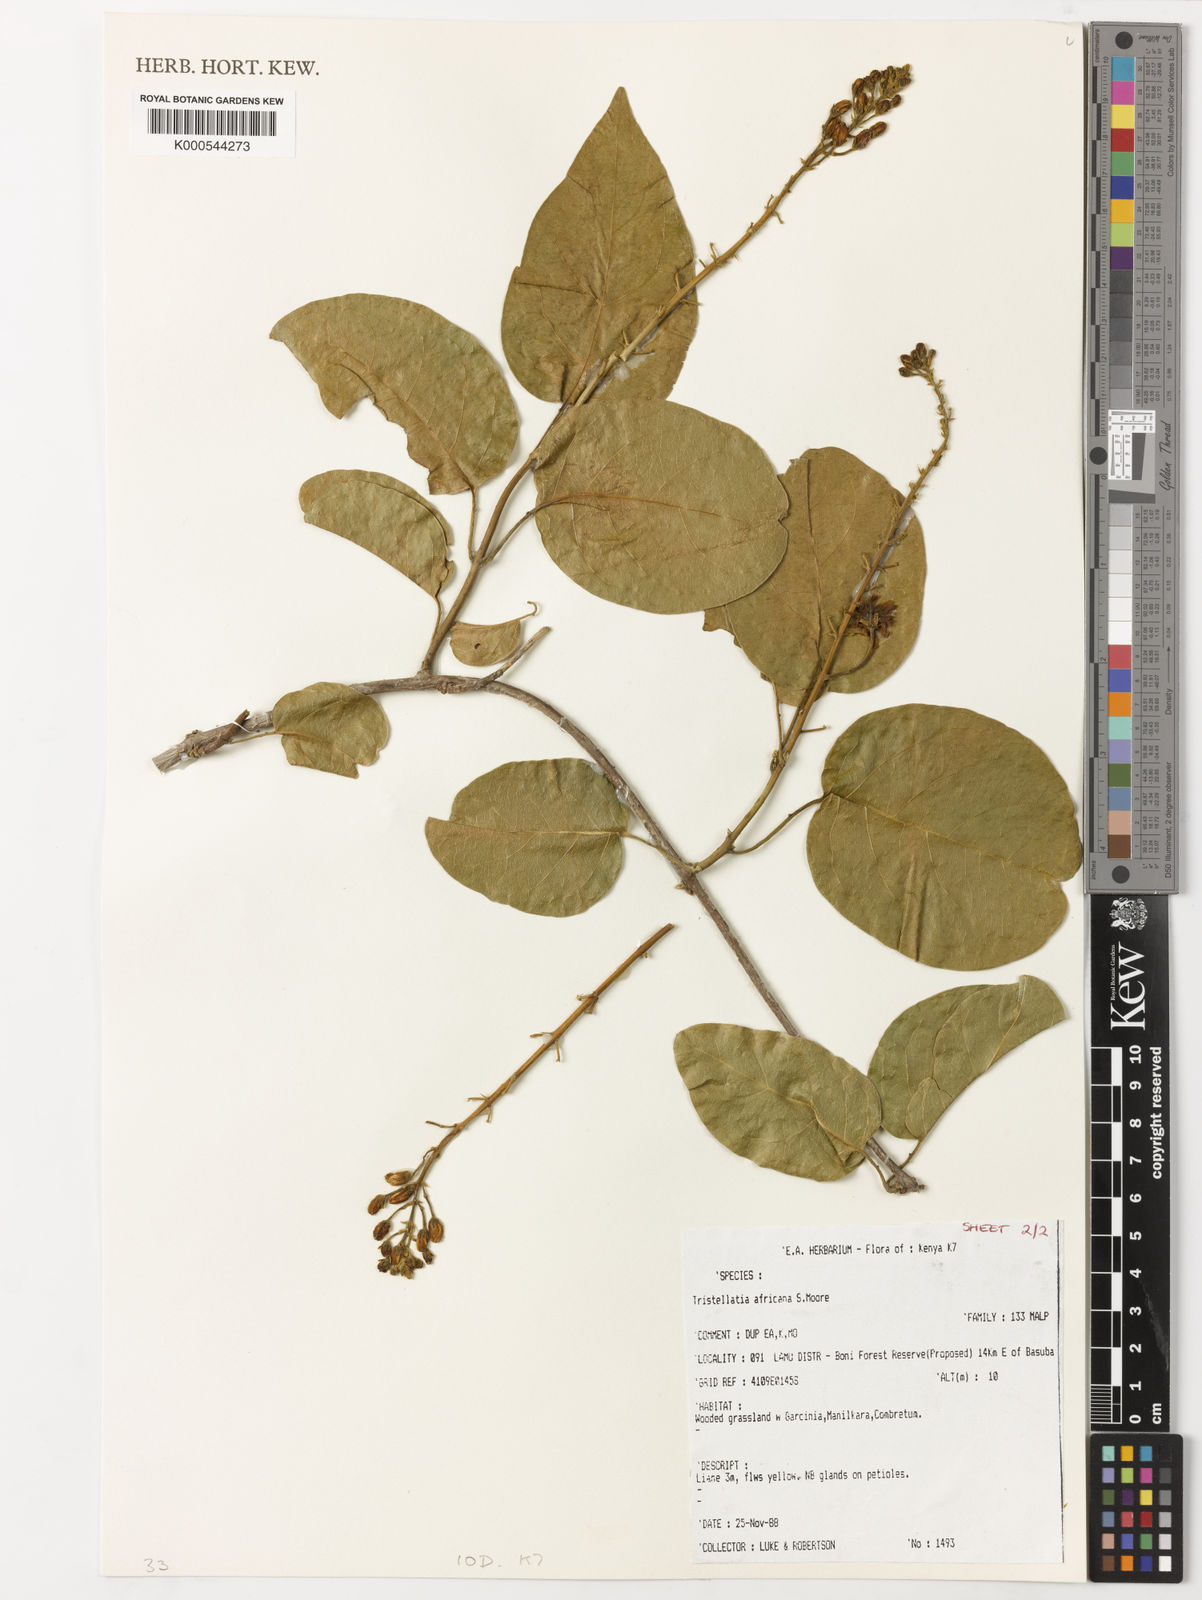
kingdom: Plantae
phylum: Tracheophyta
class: Magnoliopsida
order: Malpighiales
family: Malpighiaceae
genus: Tristellateia
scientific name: Tristellateia africana
